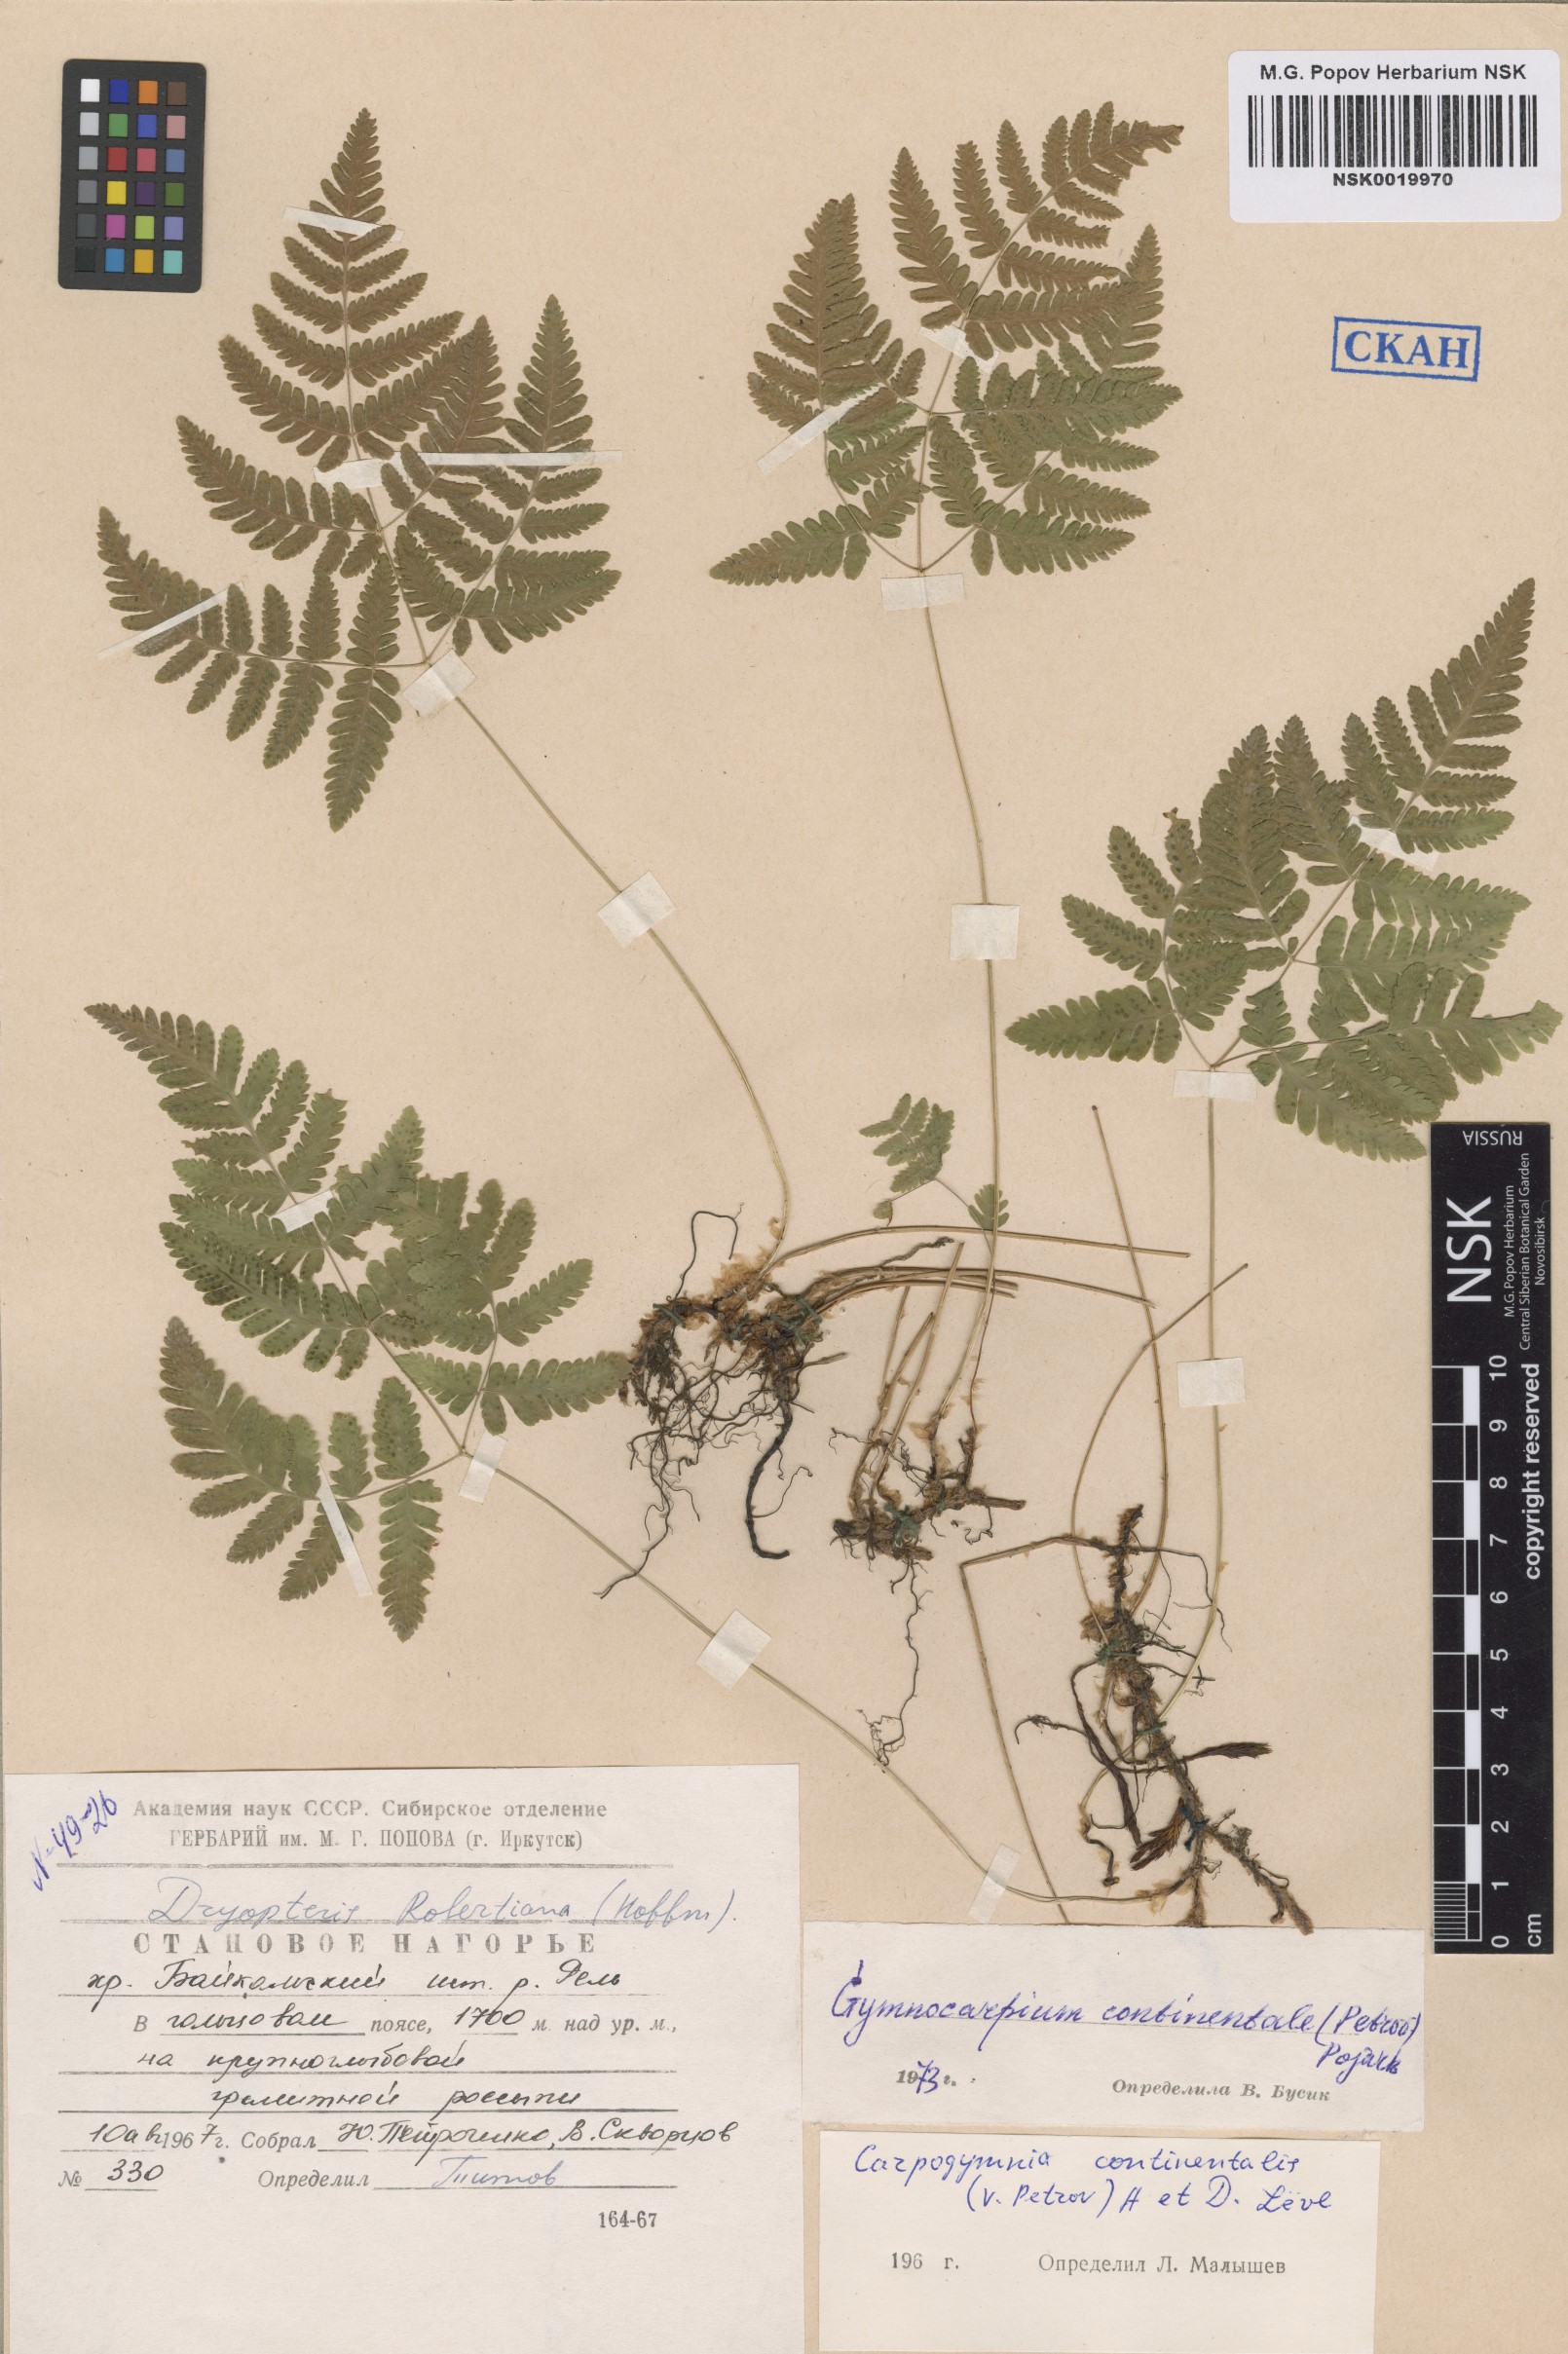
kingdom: Plantae
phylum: Tracheophyta
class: Polypodiopsida
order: Polypodiales
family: Cystopteridaceae
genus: Gymnocarpium
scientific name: Gymnocarpium continentale
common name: Asian oak fern
